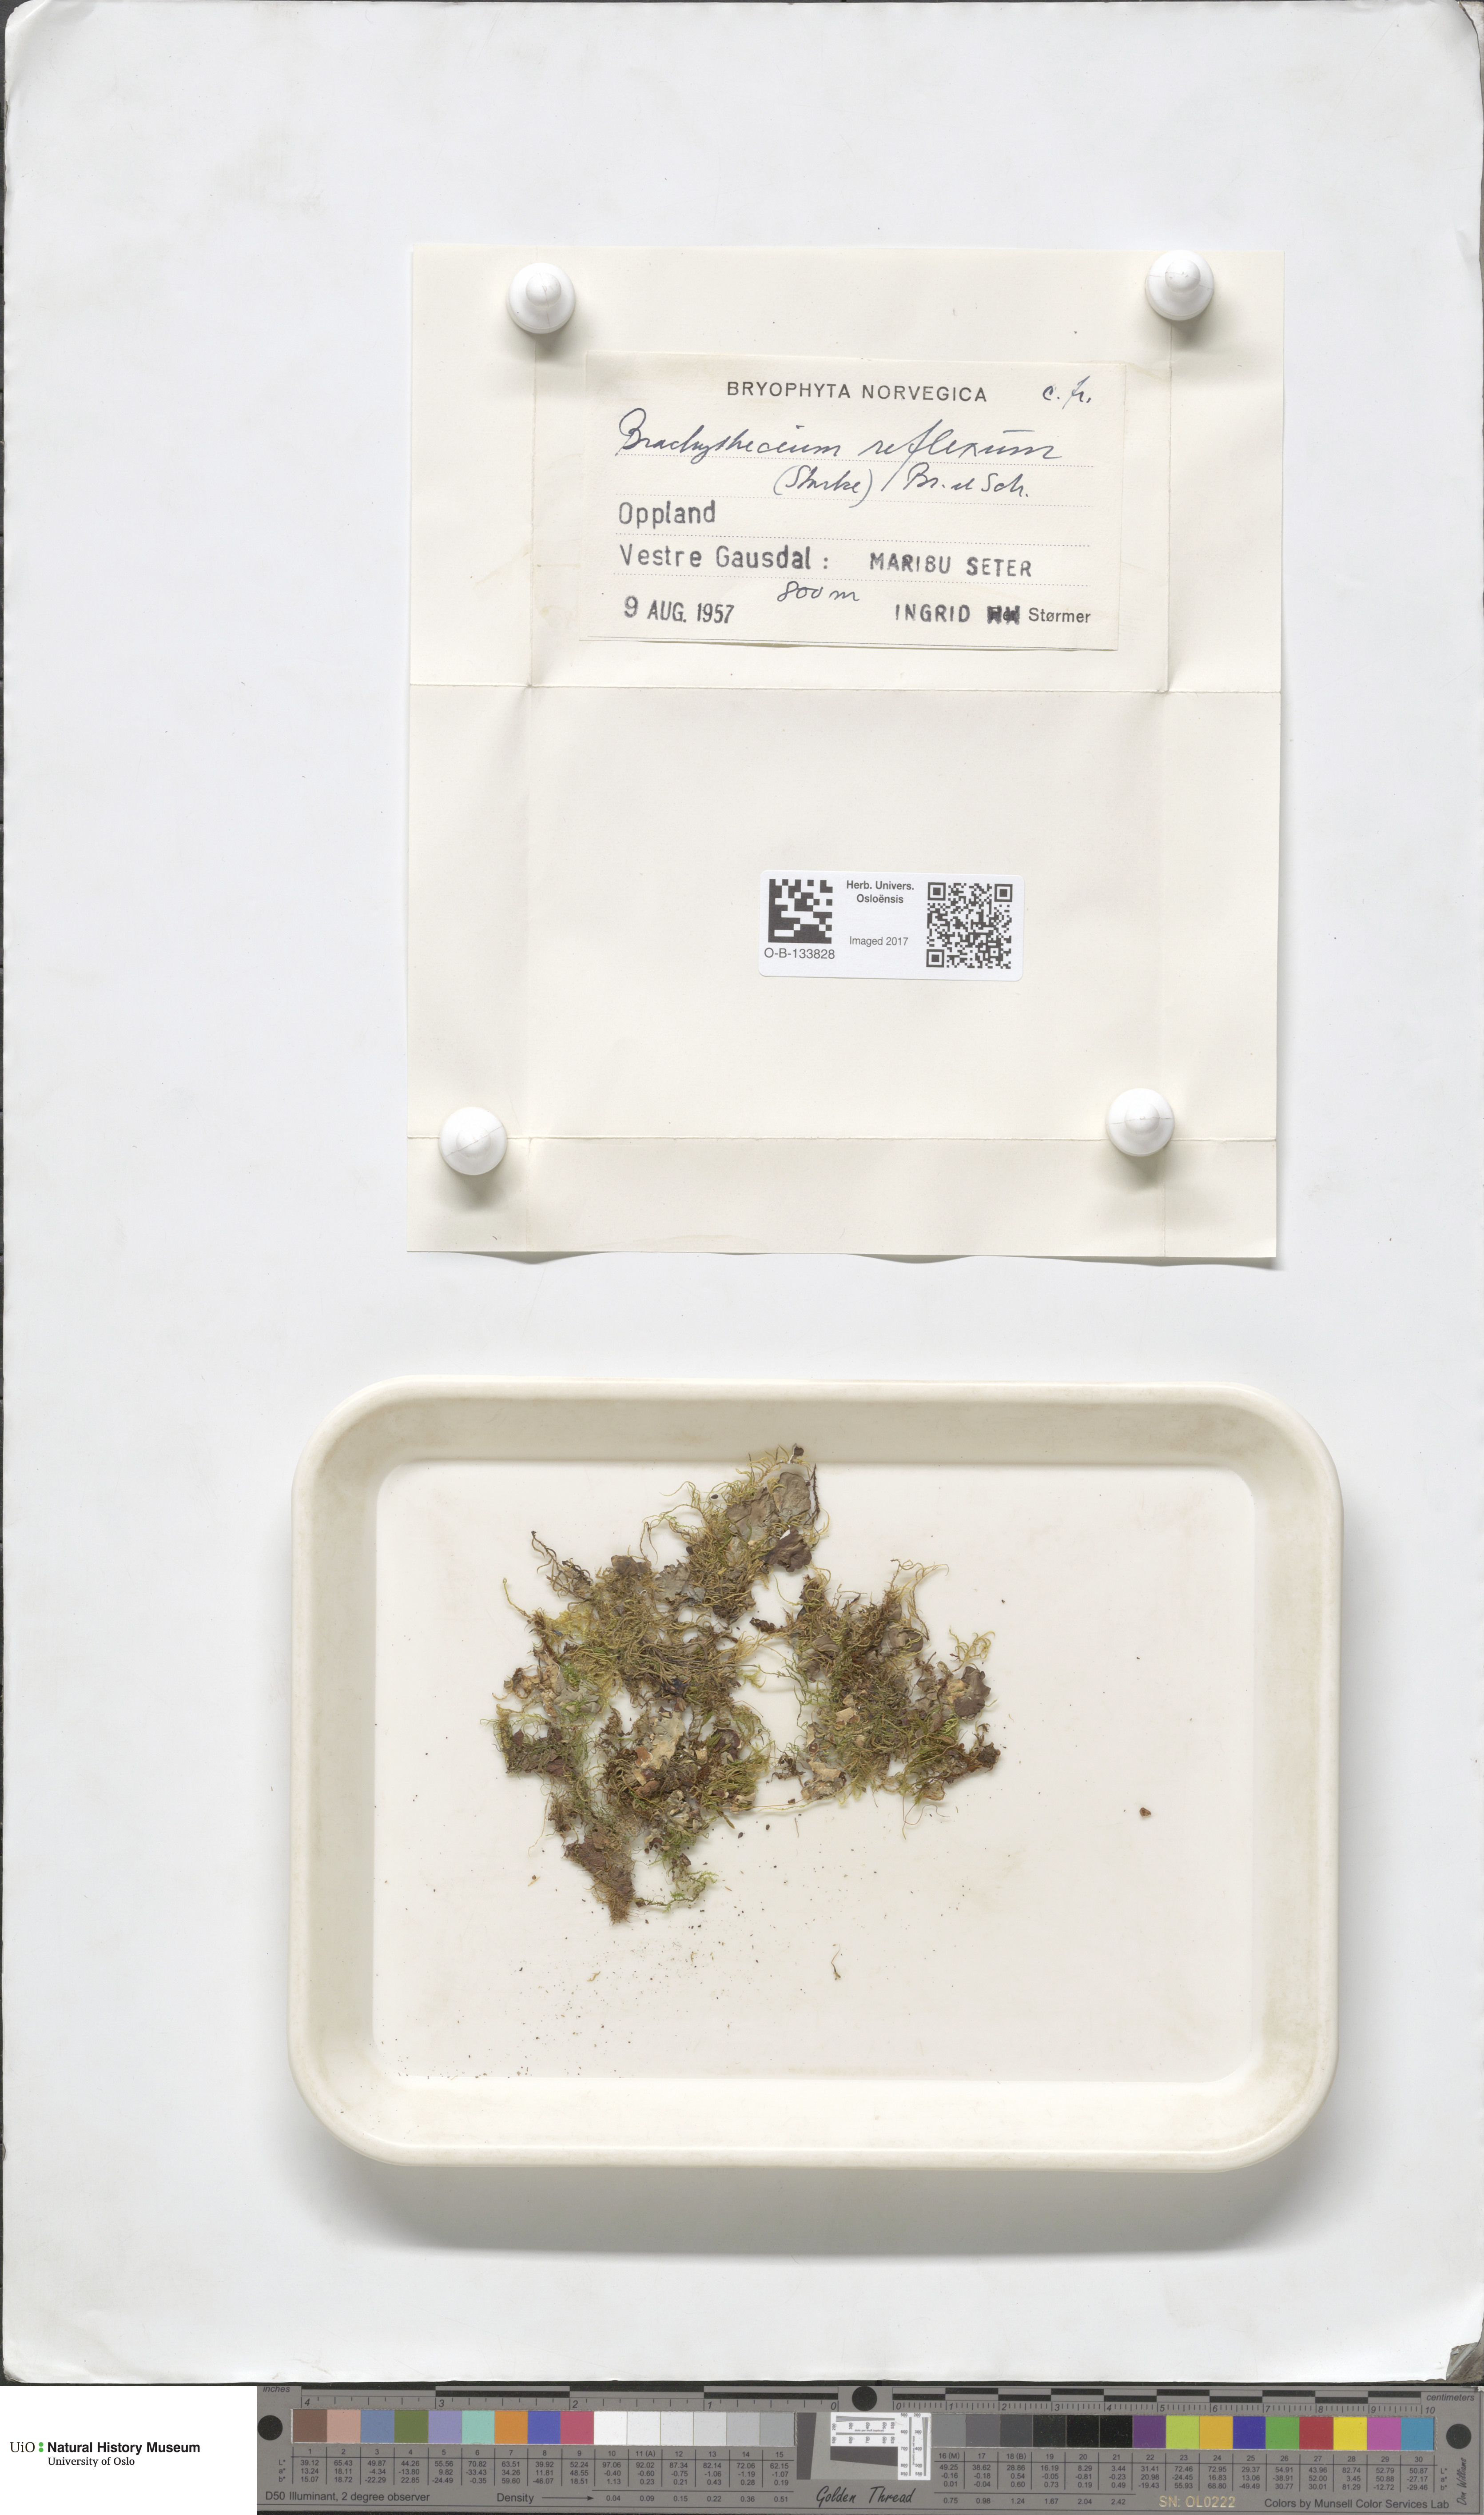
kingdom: Plantae
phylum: Bryophyta
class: Bryopsida
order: Hypnales
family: Brachytheciaceae
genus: Sciuro-hypnum
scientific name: Sciuro-hypnum reflexum
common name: Reflexed feather-moss
